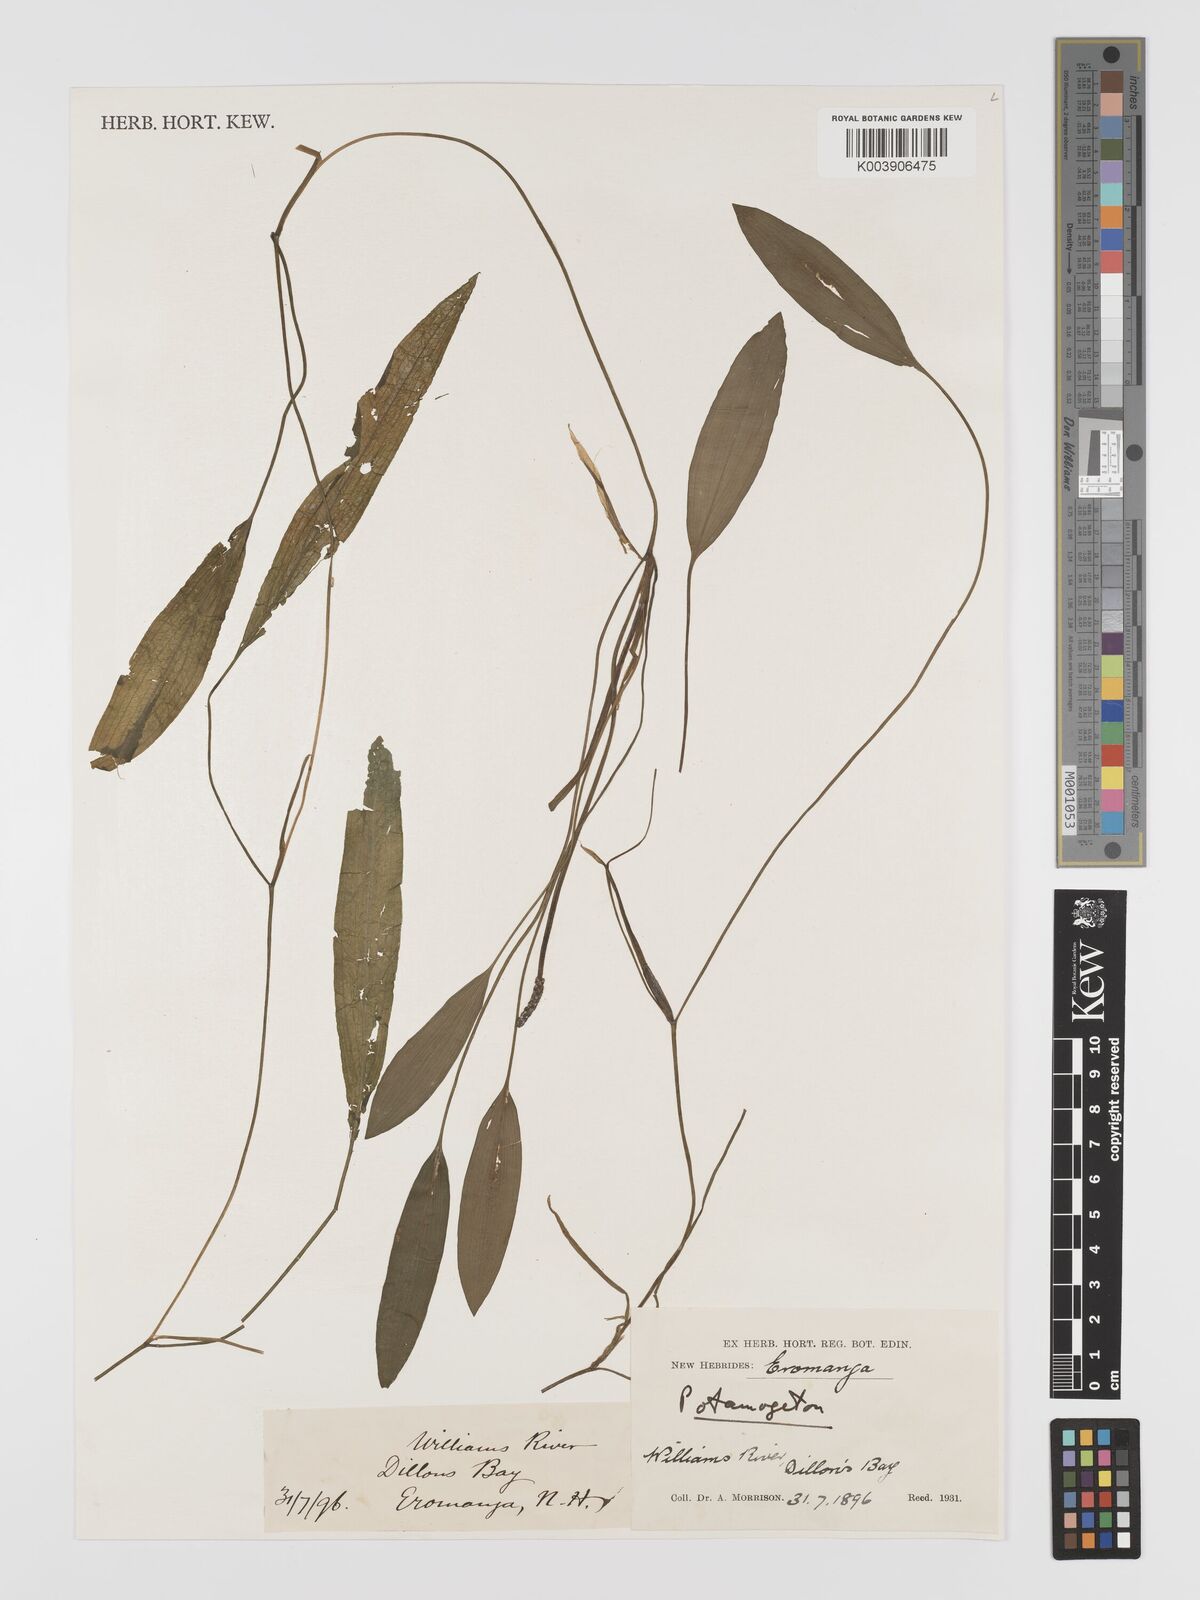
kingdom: Plantae
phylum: Tracheophyta
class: Liliopsida
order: Alismatales
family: Potamogetonaceae
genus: Potamogeton
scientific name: Potamogeton distinctus
